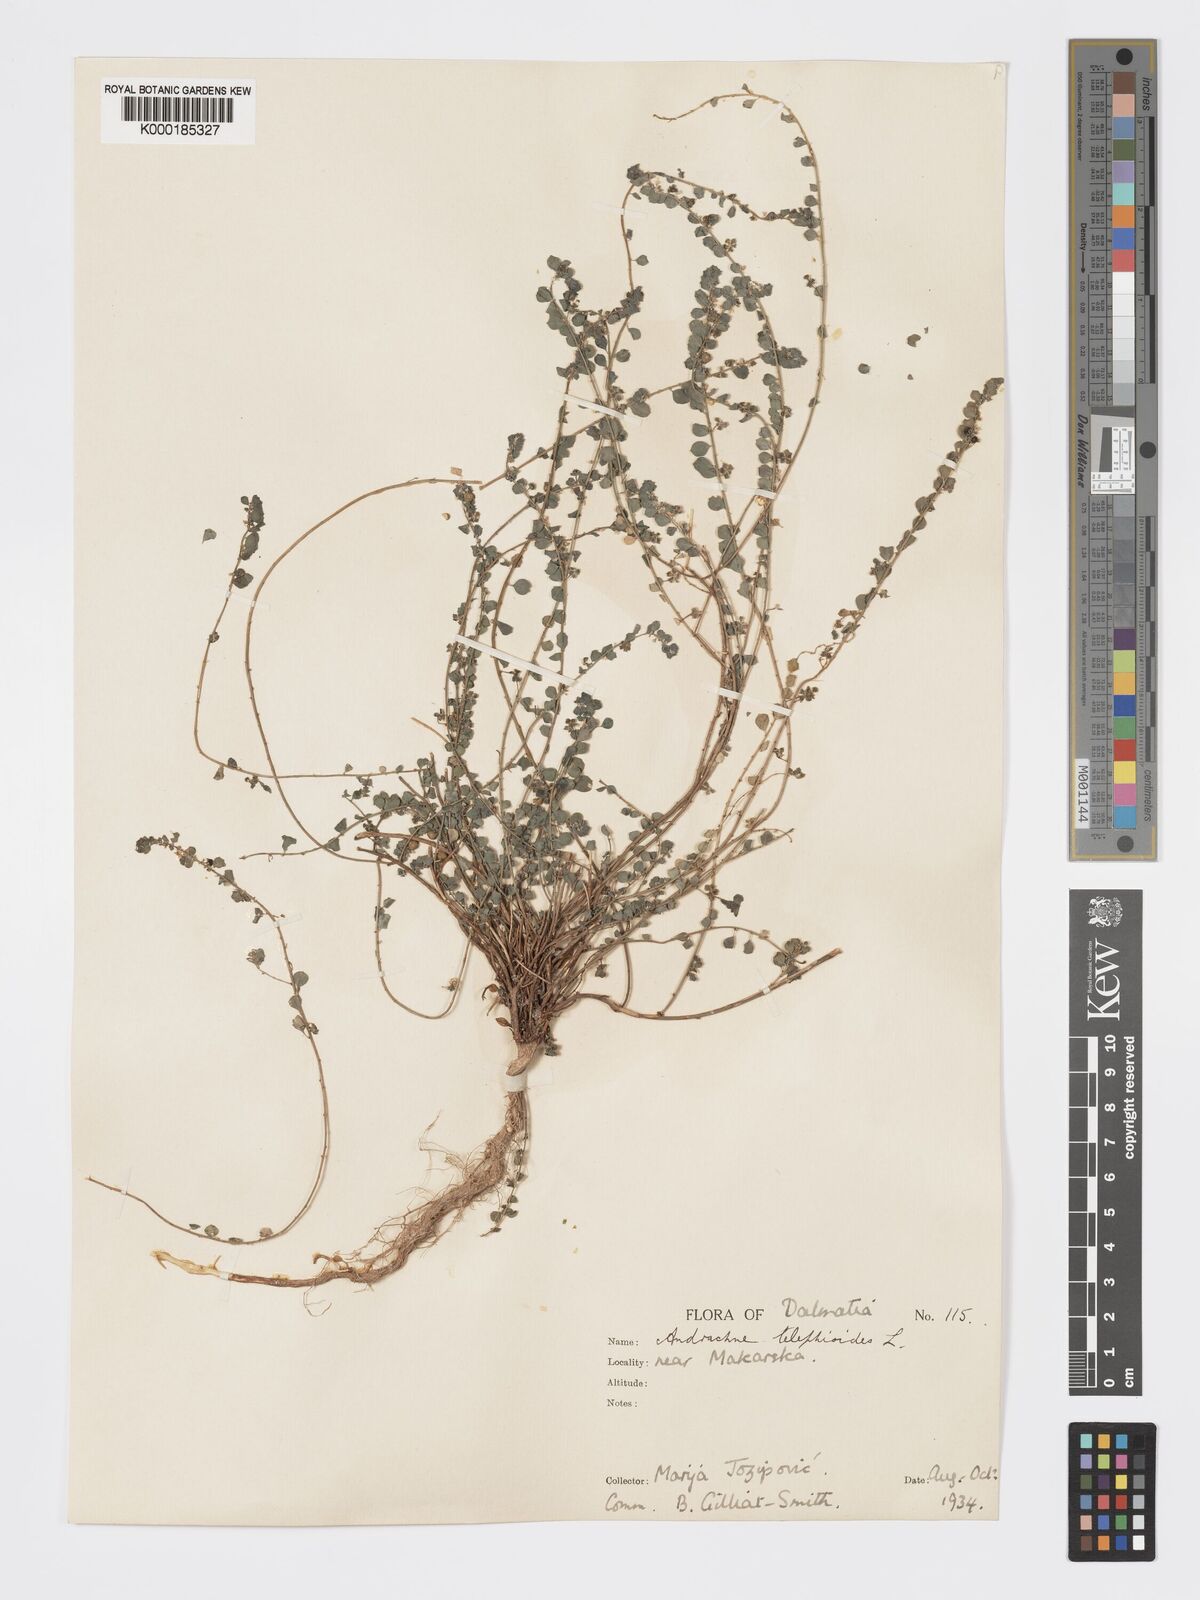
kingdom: Plantae
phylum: Tracheophyta
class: Magnoliopsida
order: Malpighiales
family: Phyllanthaceae
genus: Andrachne
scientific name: Andrachne telephioides
